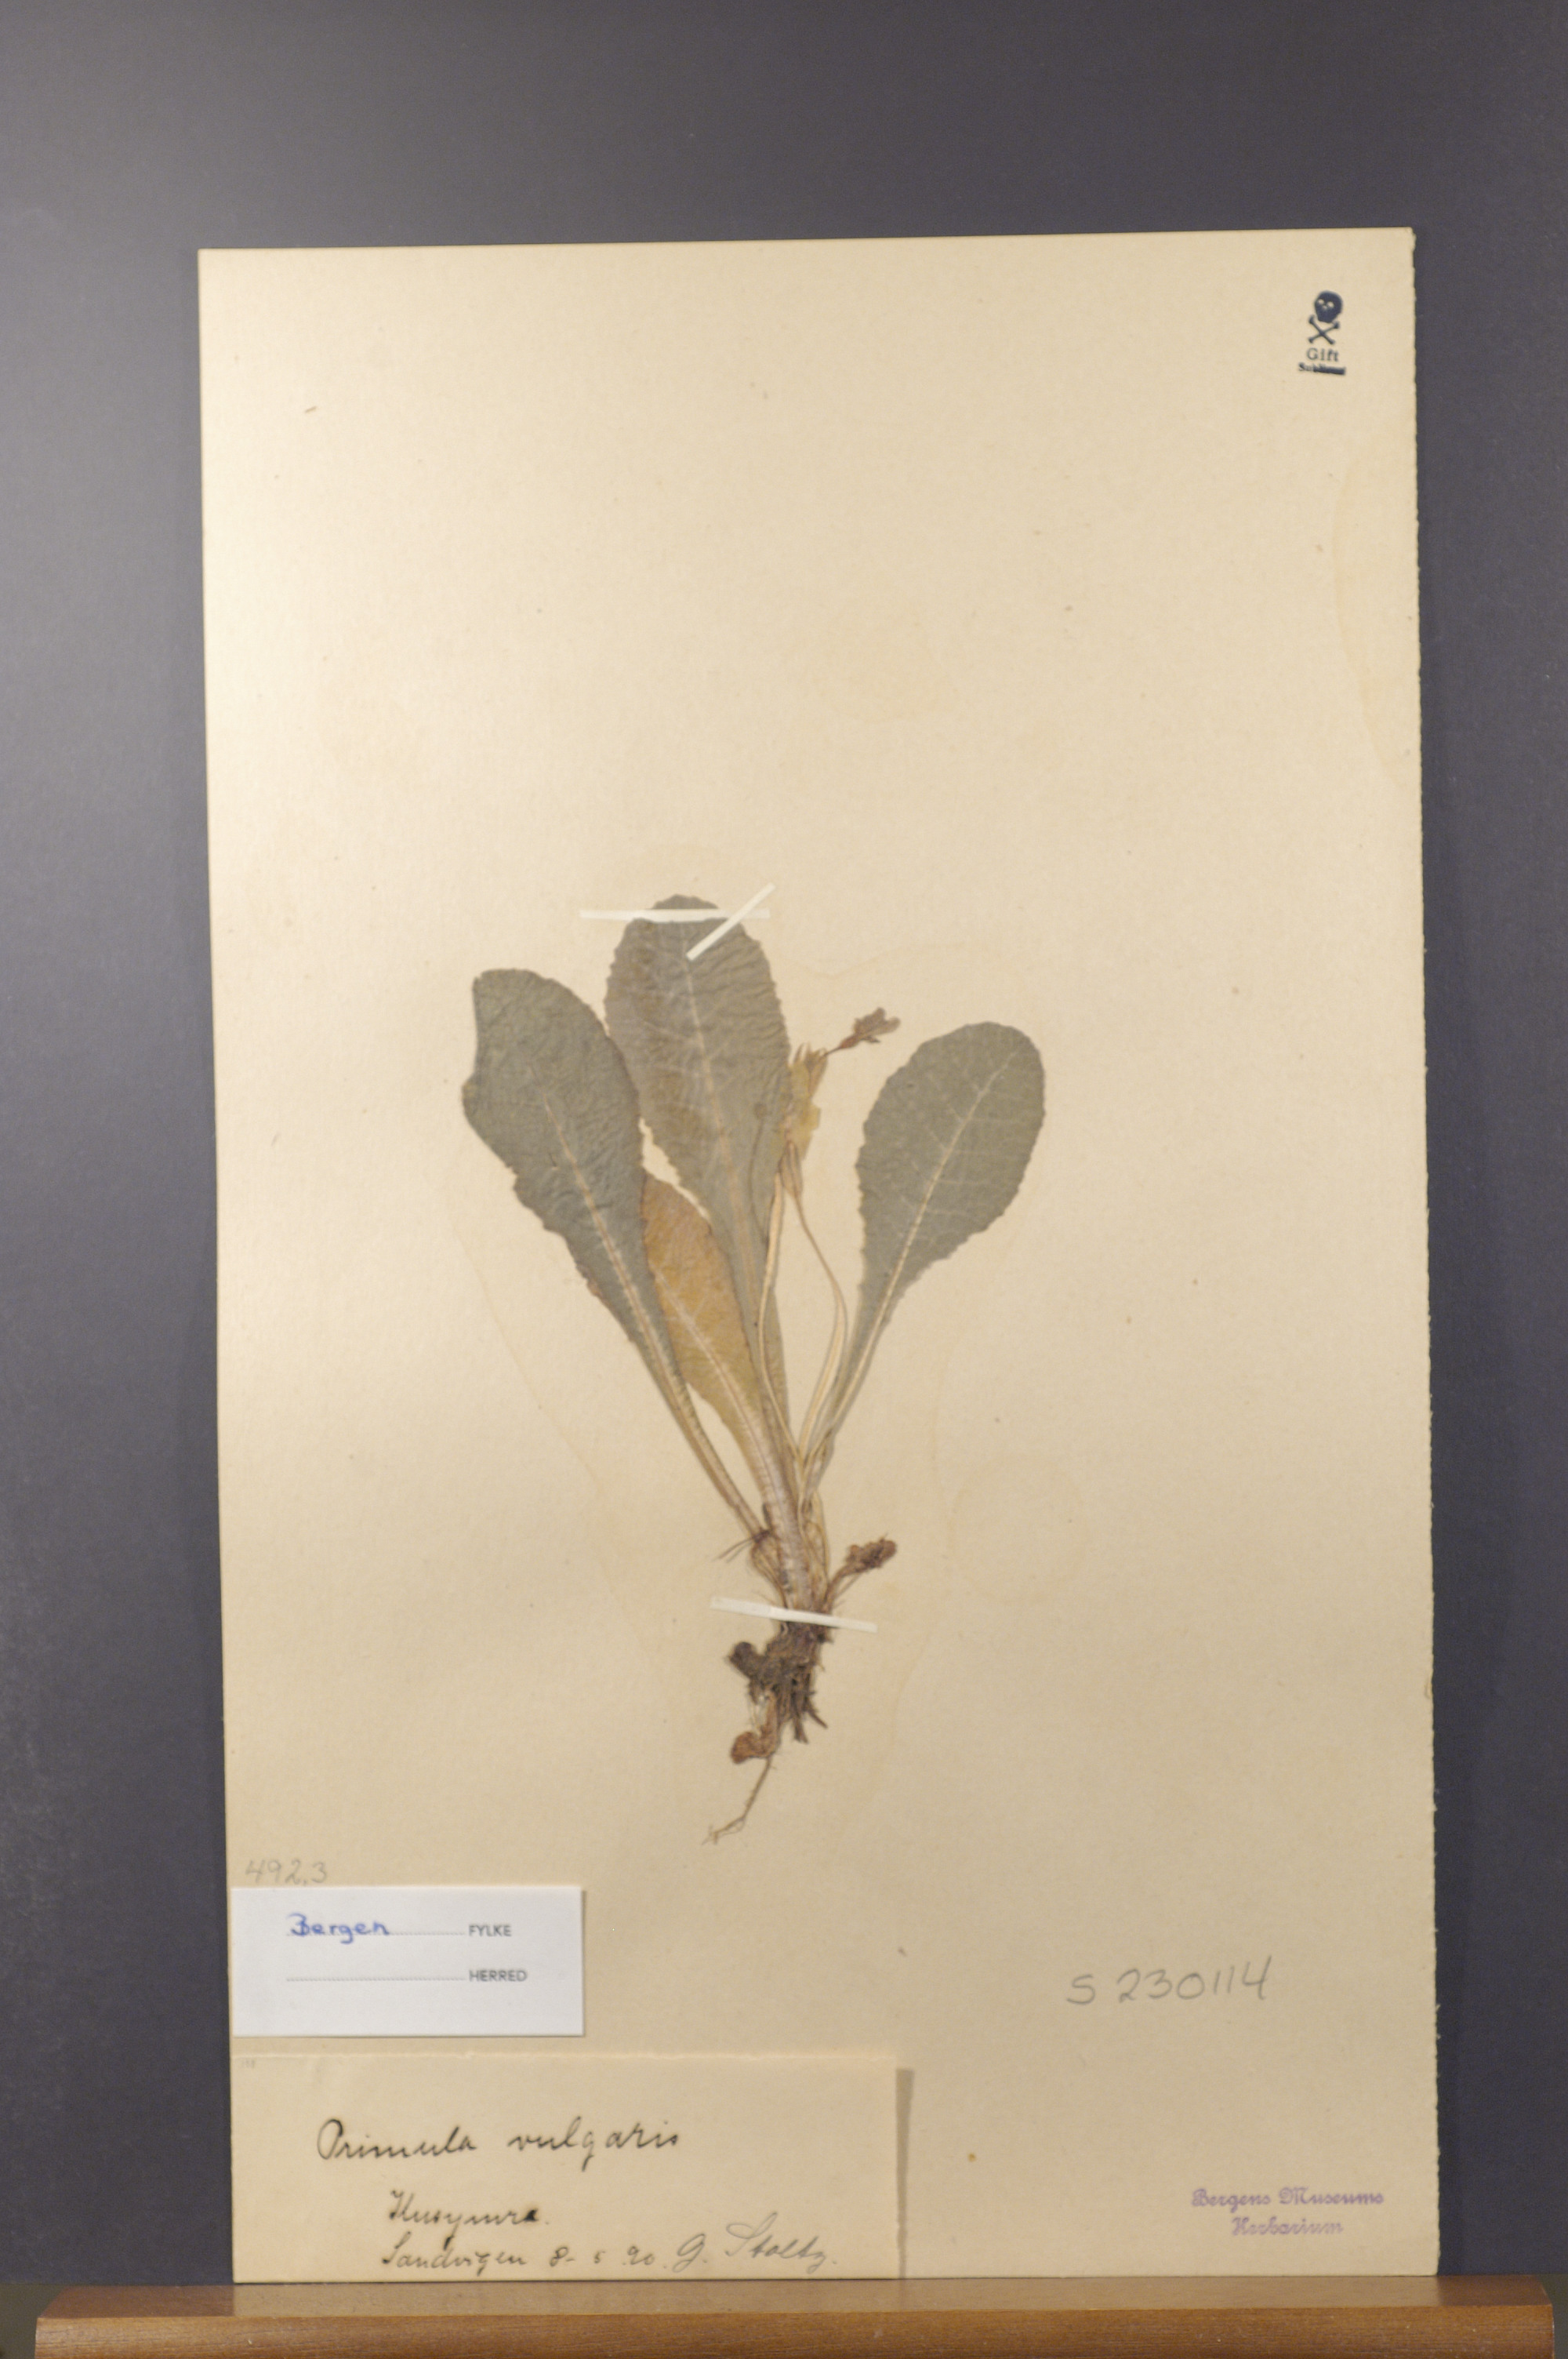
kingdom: Plantae
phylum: Tracheophyta
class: Magnoliopsida
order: Ericales
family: Primulaceae
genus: Primula
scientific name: Primula vulgaris
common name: Primrose
